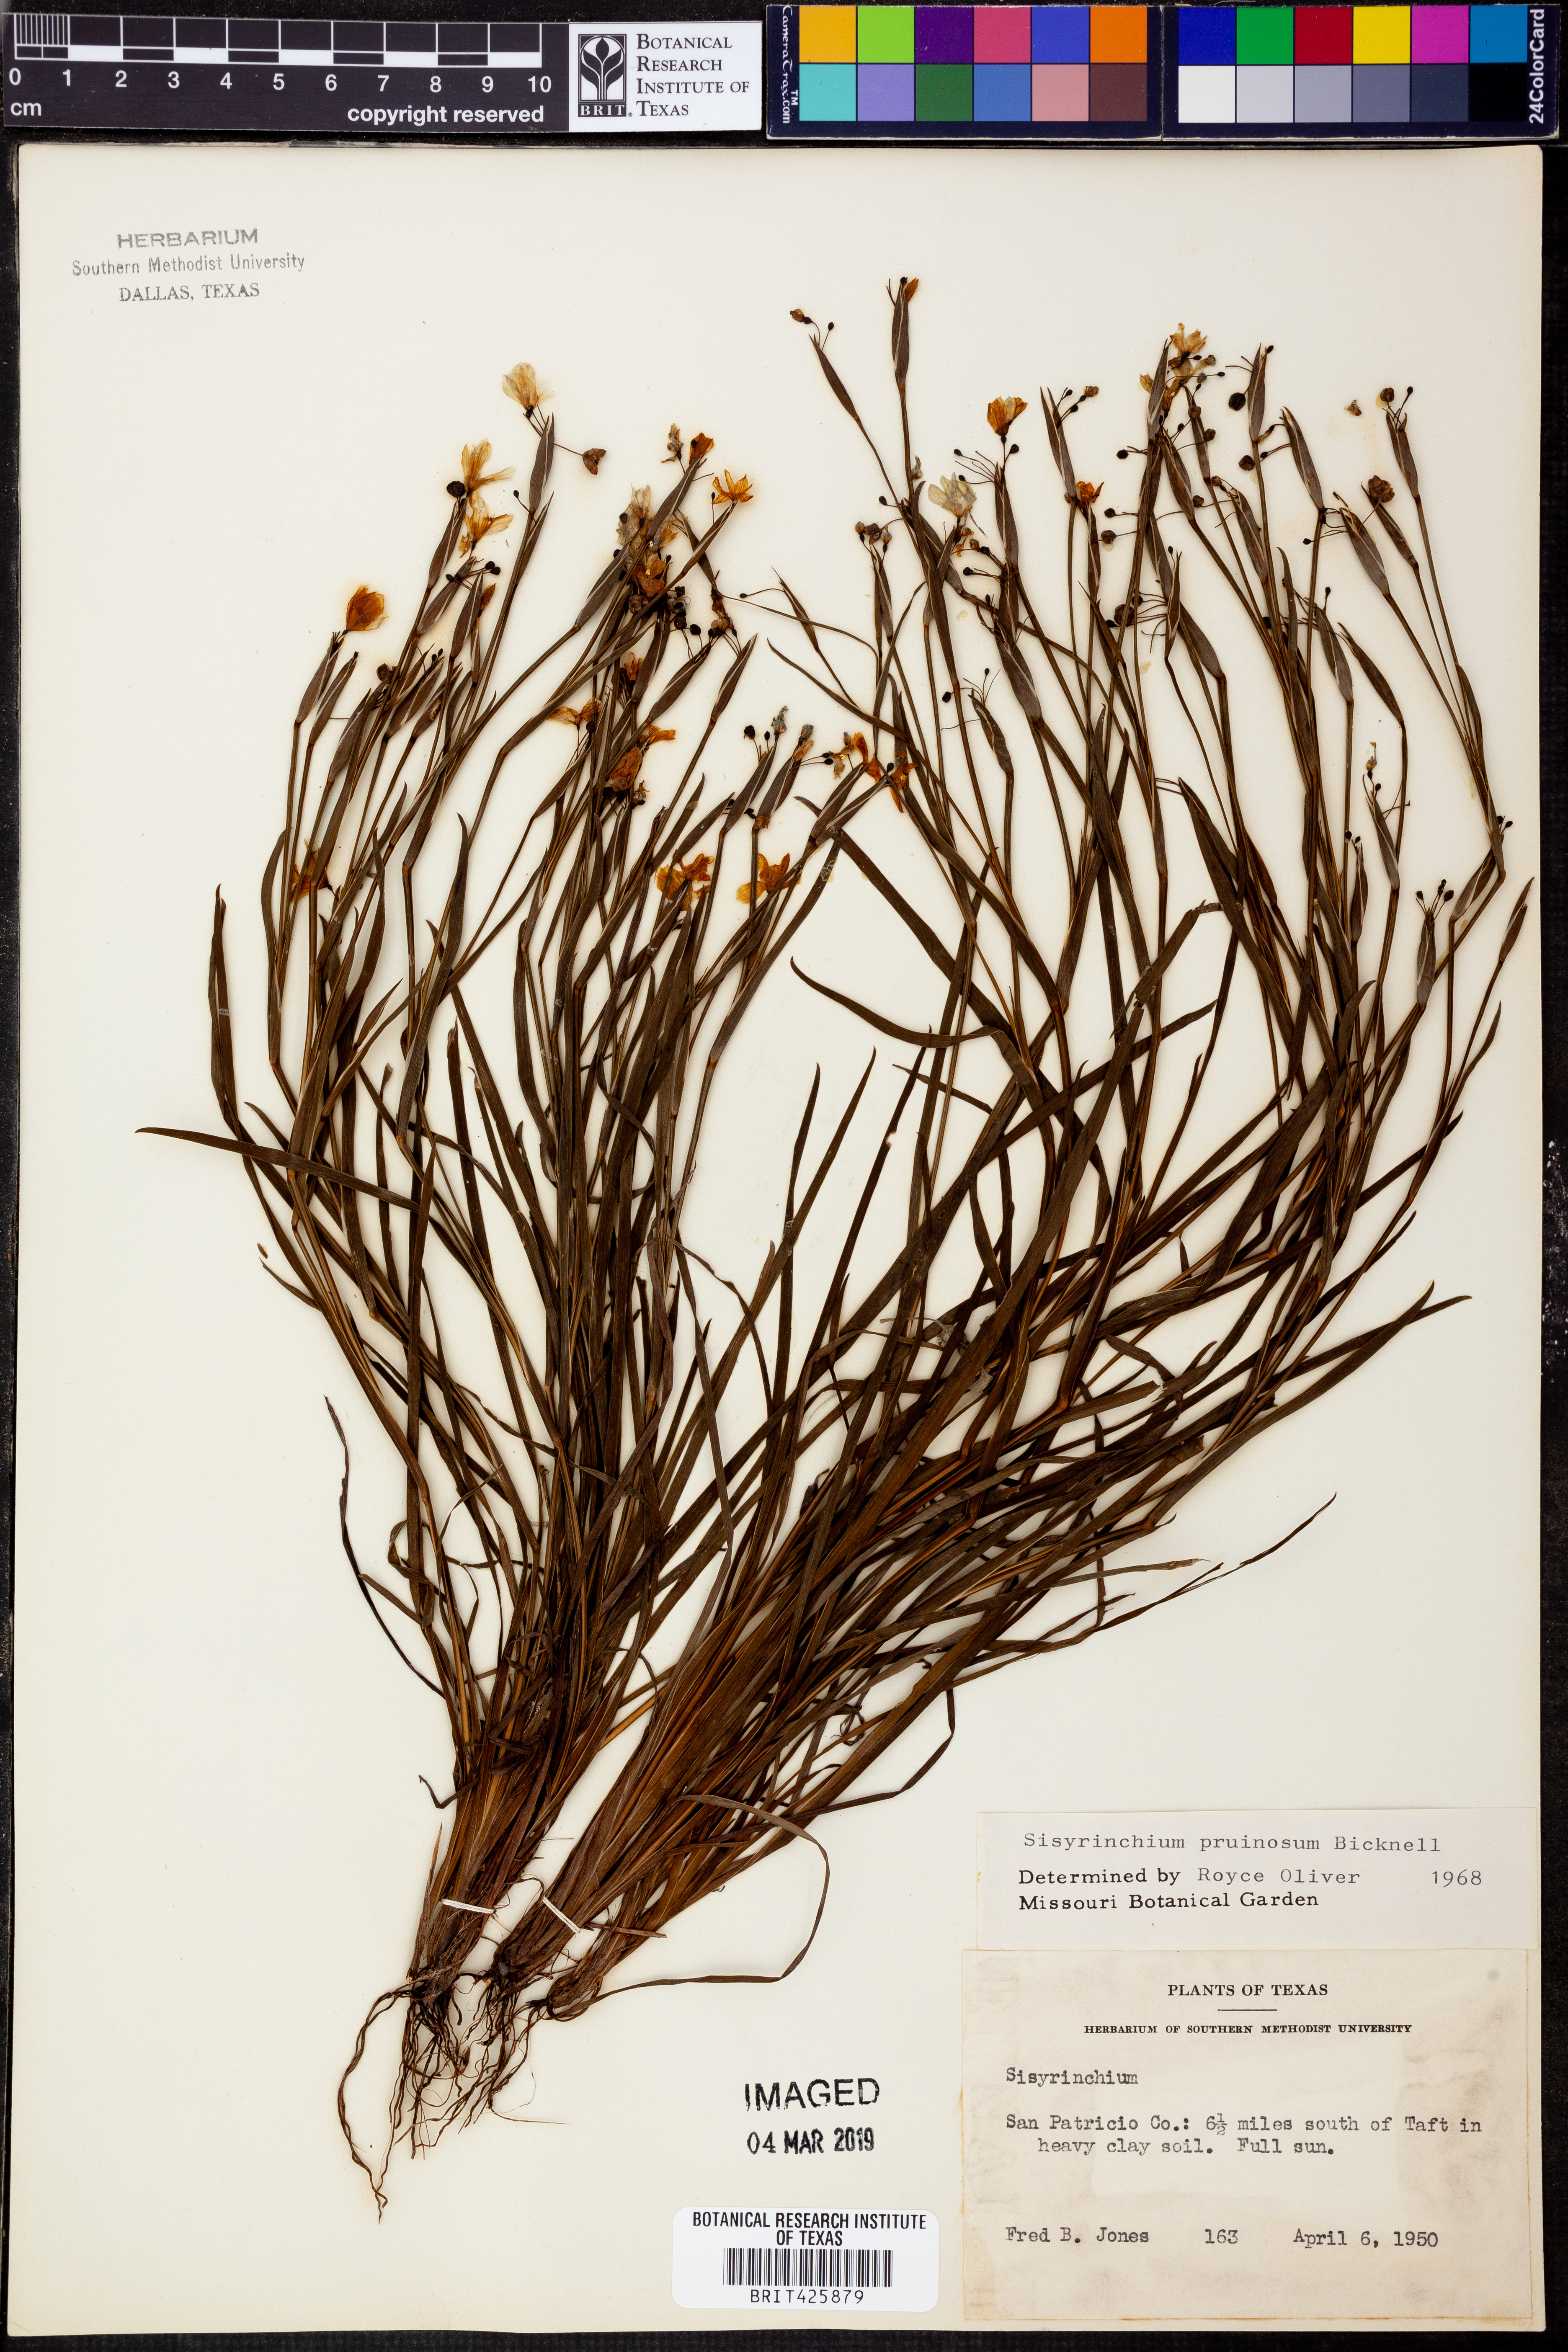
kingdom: Plantae
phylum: Tracheophyta
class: Liliopsida
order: Asparagales
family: Iridaceae
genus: Sisyrinchium
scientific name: Sisyrinchium pruinosum
